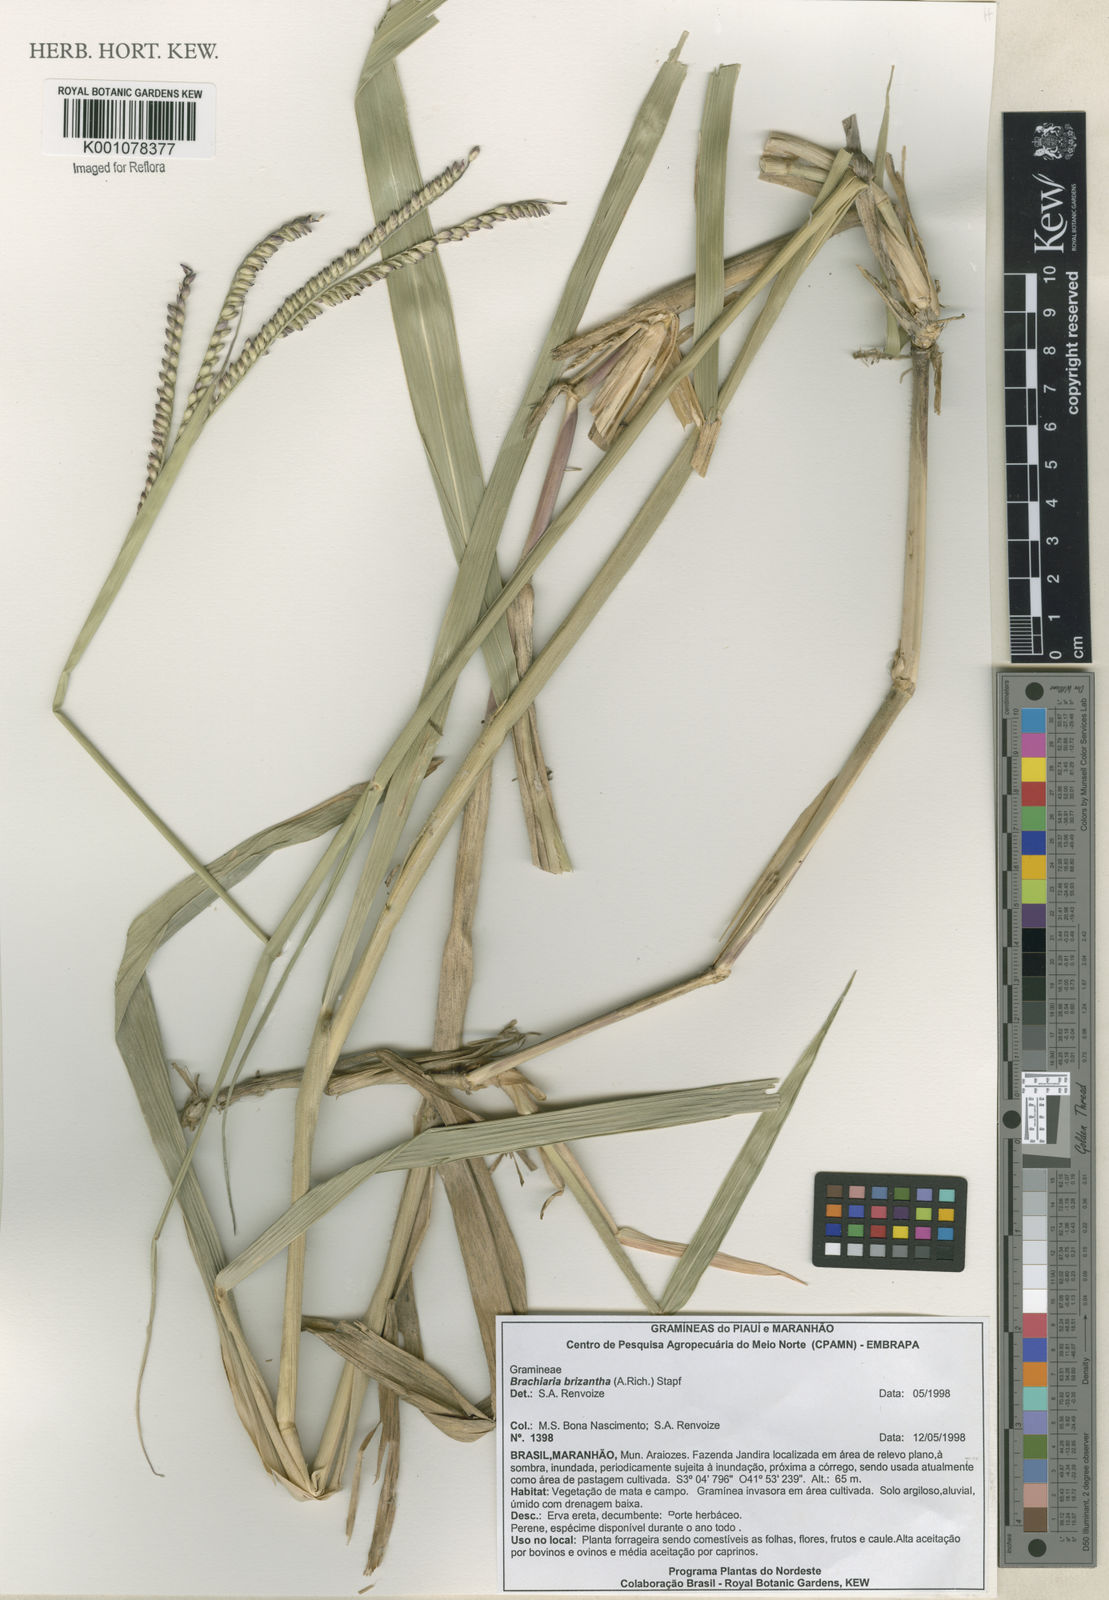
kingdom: Plantae
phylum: Tracheophyta
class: Liliopsida
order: Poales
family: Poaceae
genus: Urochloa
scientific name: Urochloa brizantha
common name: Palisade signalgrass
